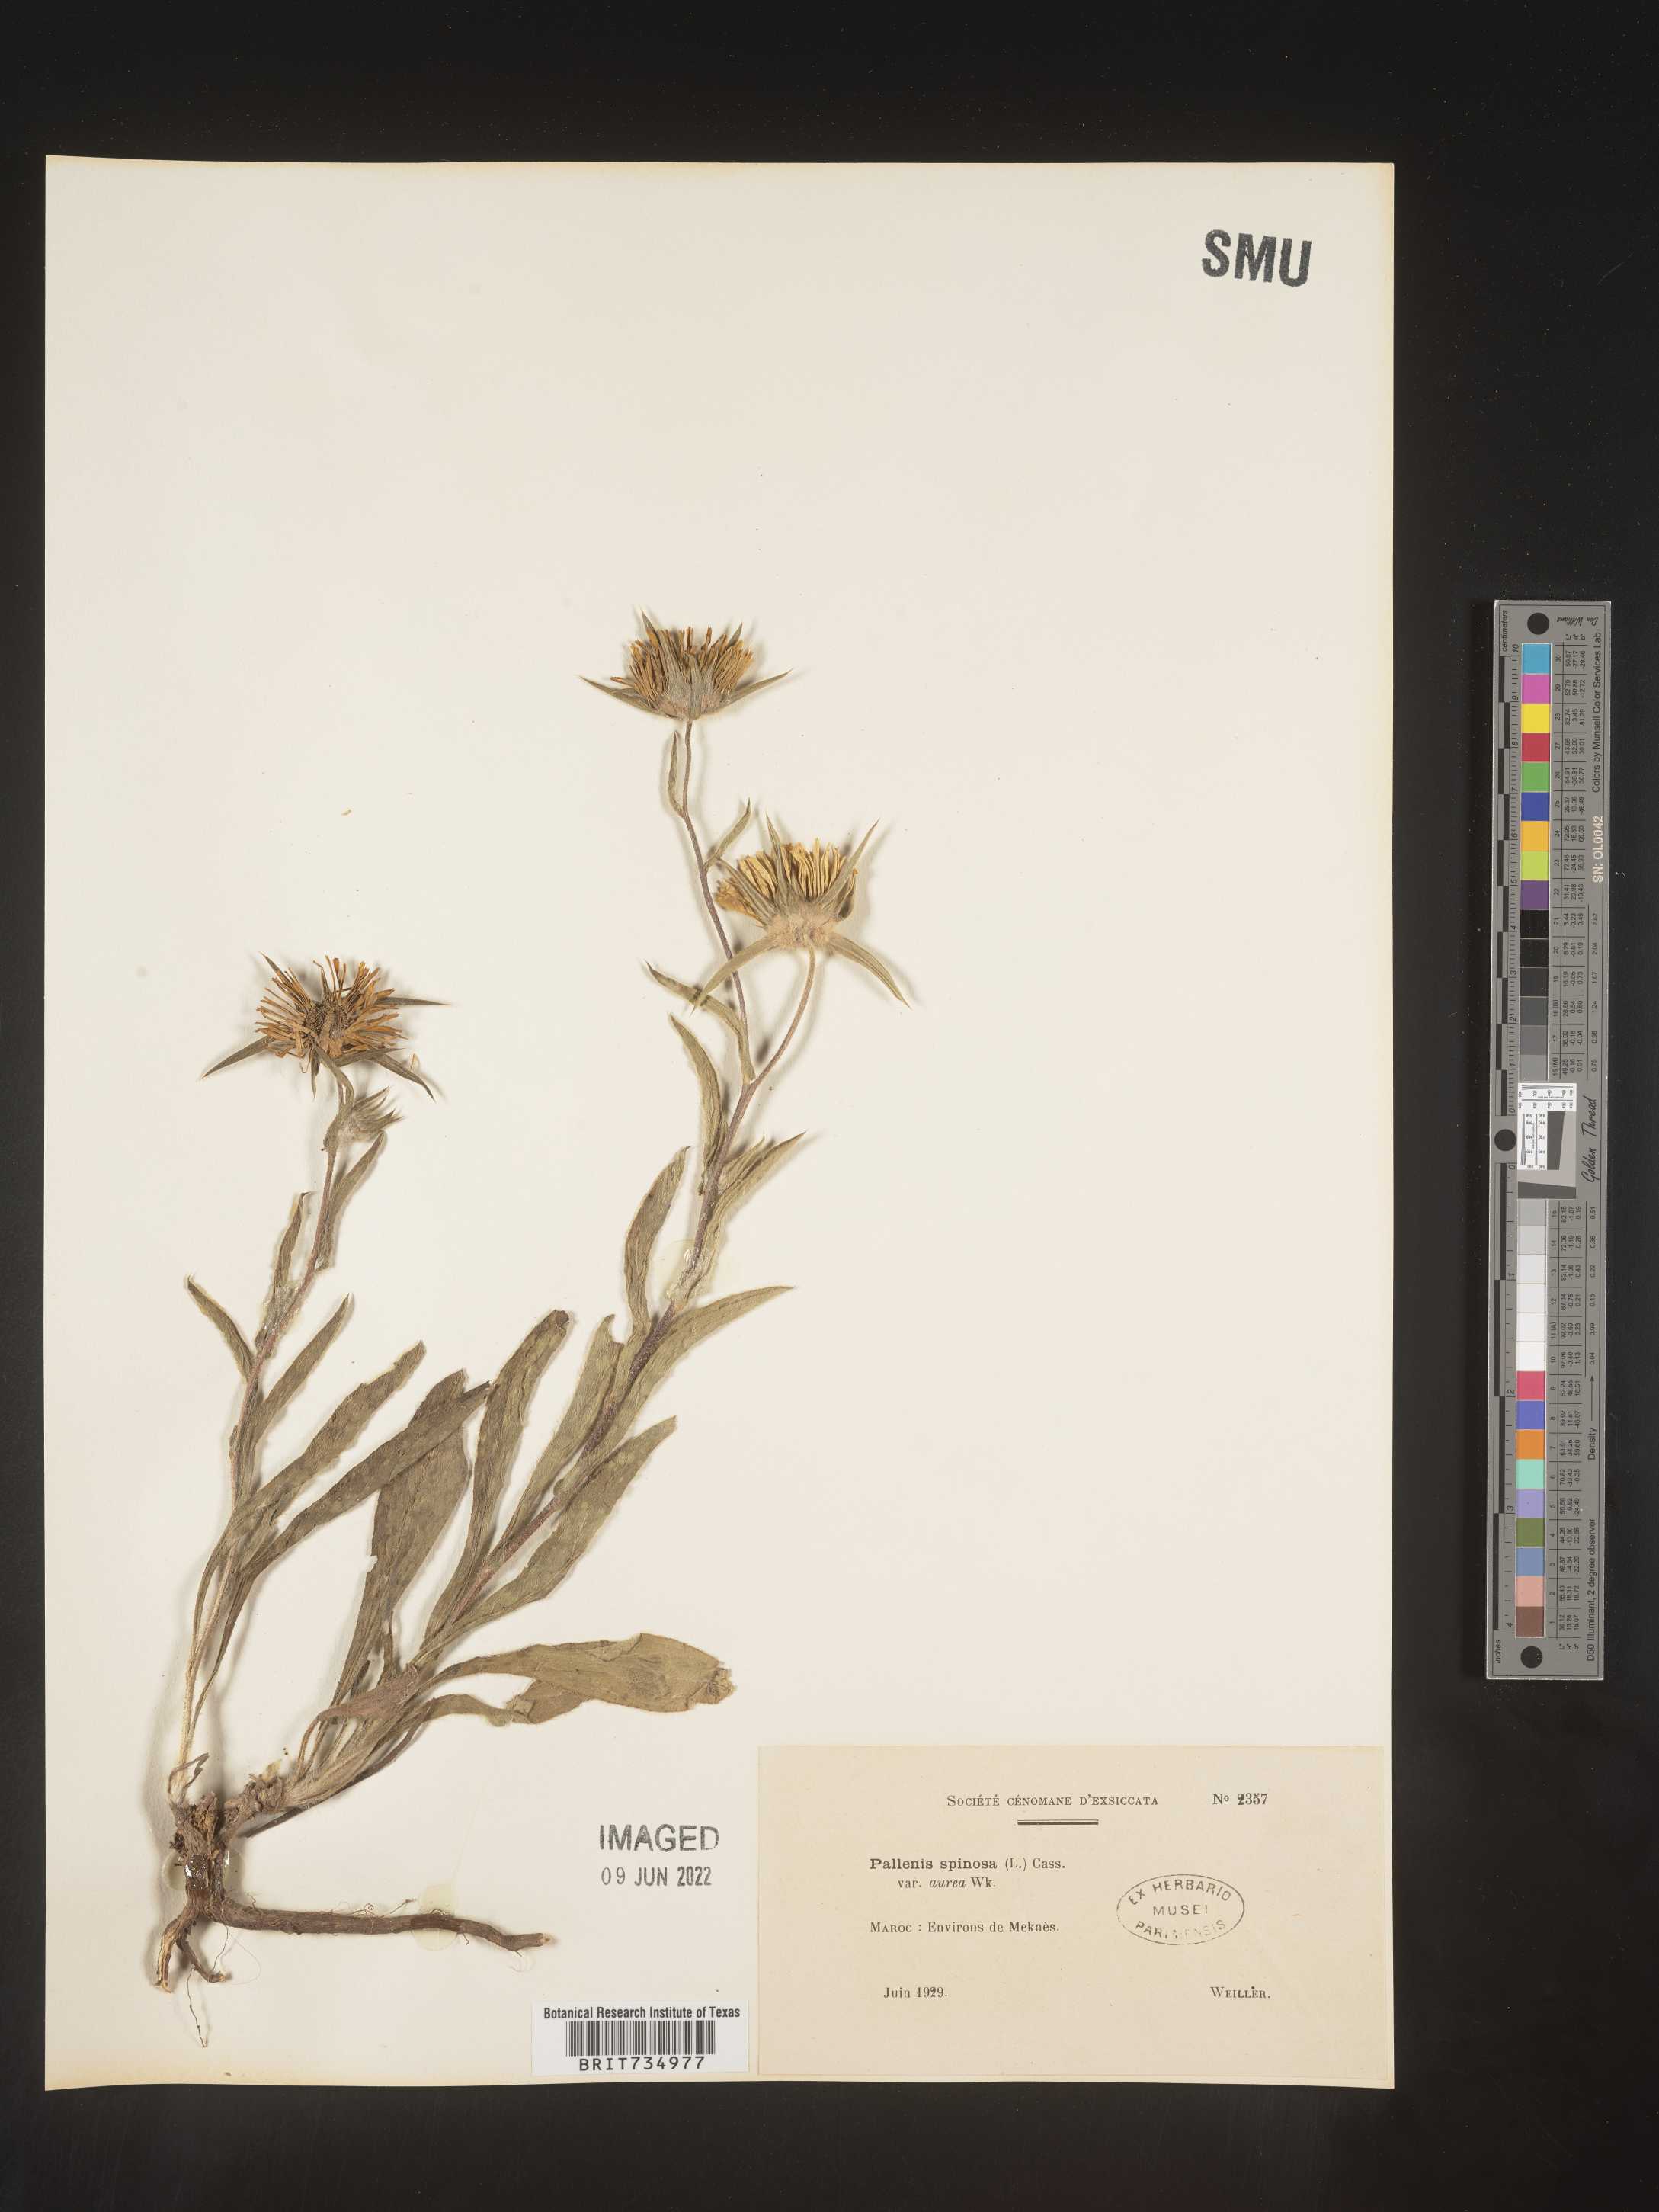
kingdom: Plantae
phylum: Tracheophyta
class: Magnoliopsida
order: Asterales
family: Asteraceae
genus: Pallenis
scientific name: Pallenis
